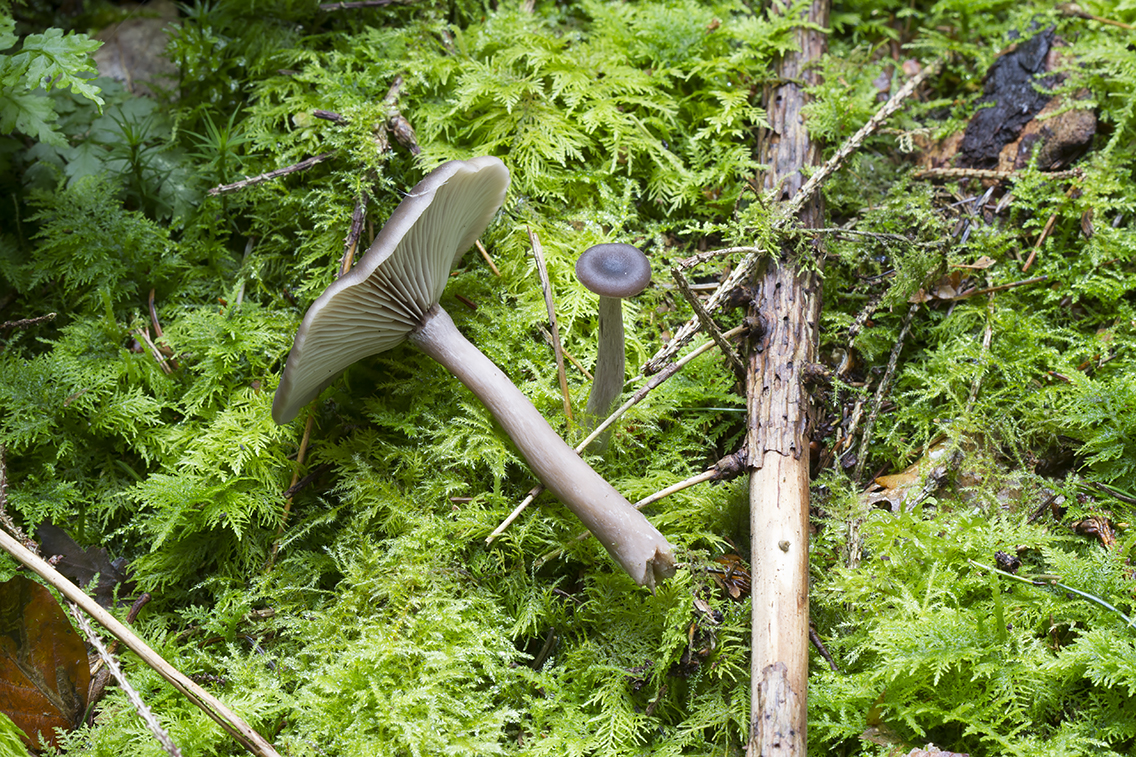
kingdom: Fungi
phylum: Basidiomycota
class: Agaricomycetes
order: Agaricales
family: Pseudoclitocybaceae
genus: Pseudoclitocybe
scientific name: Pseudoclitocybe cyathiformis
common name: almindelig bægertragthat
